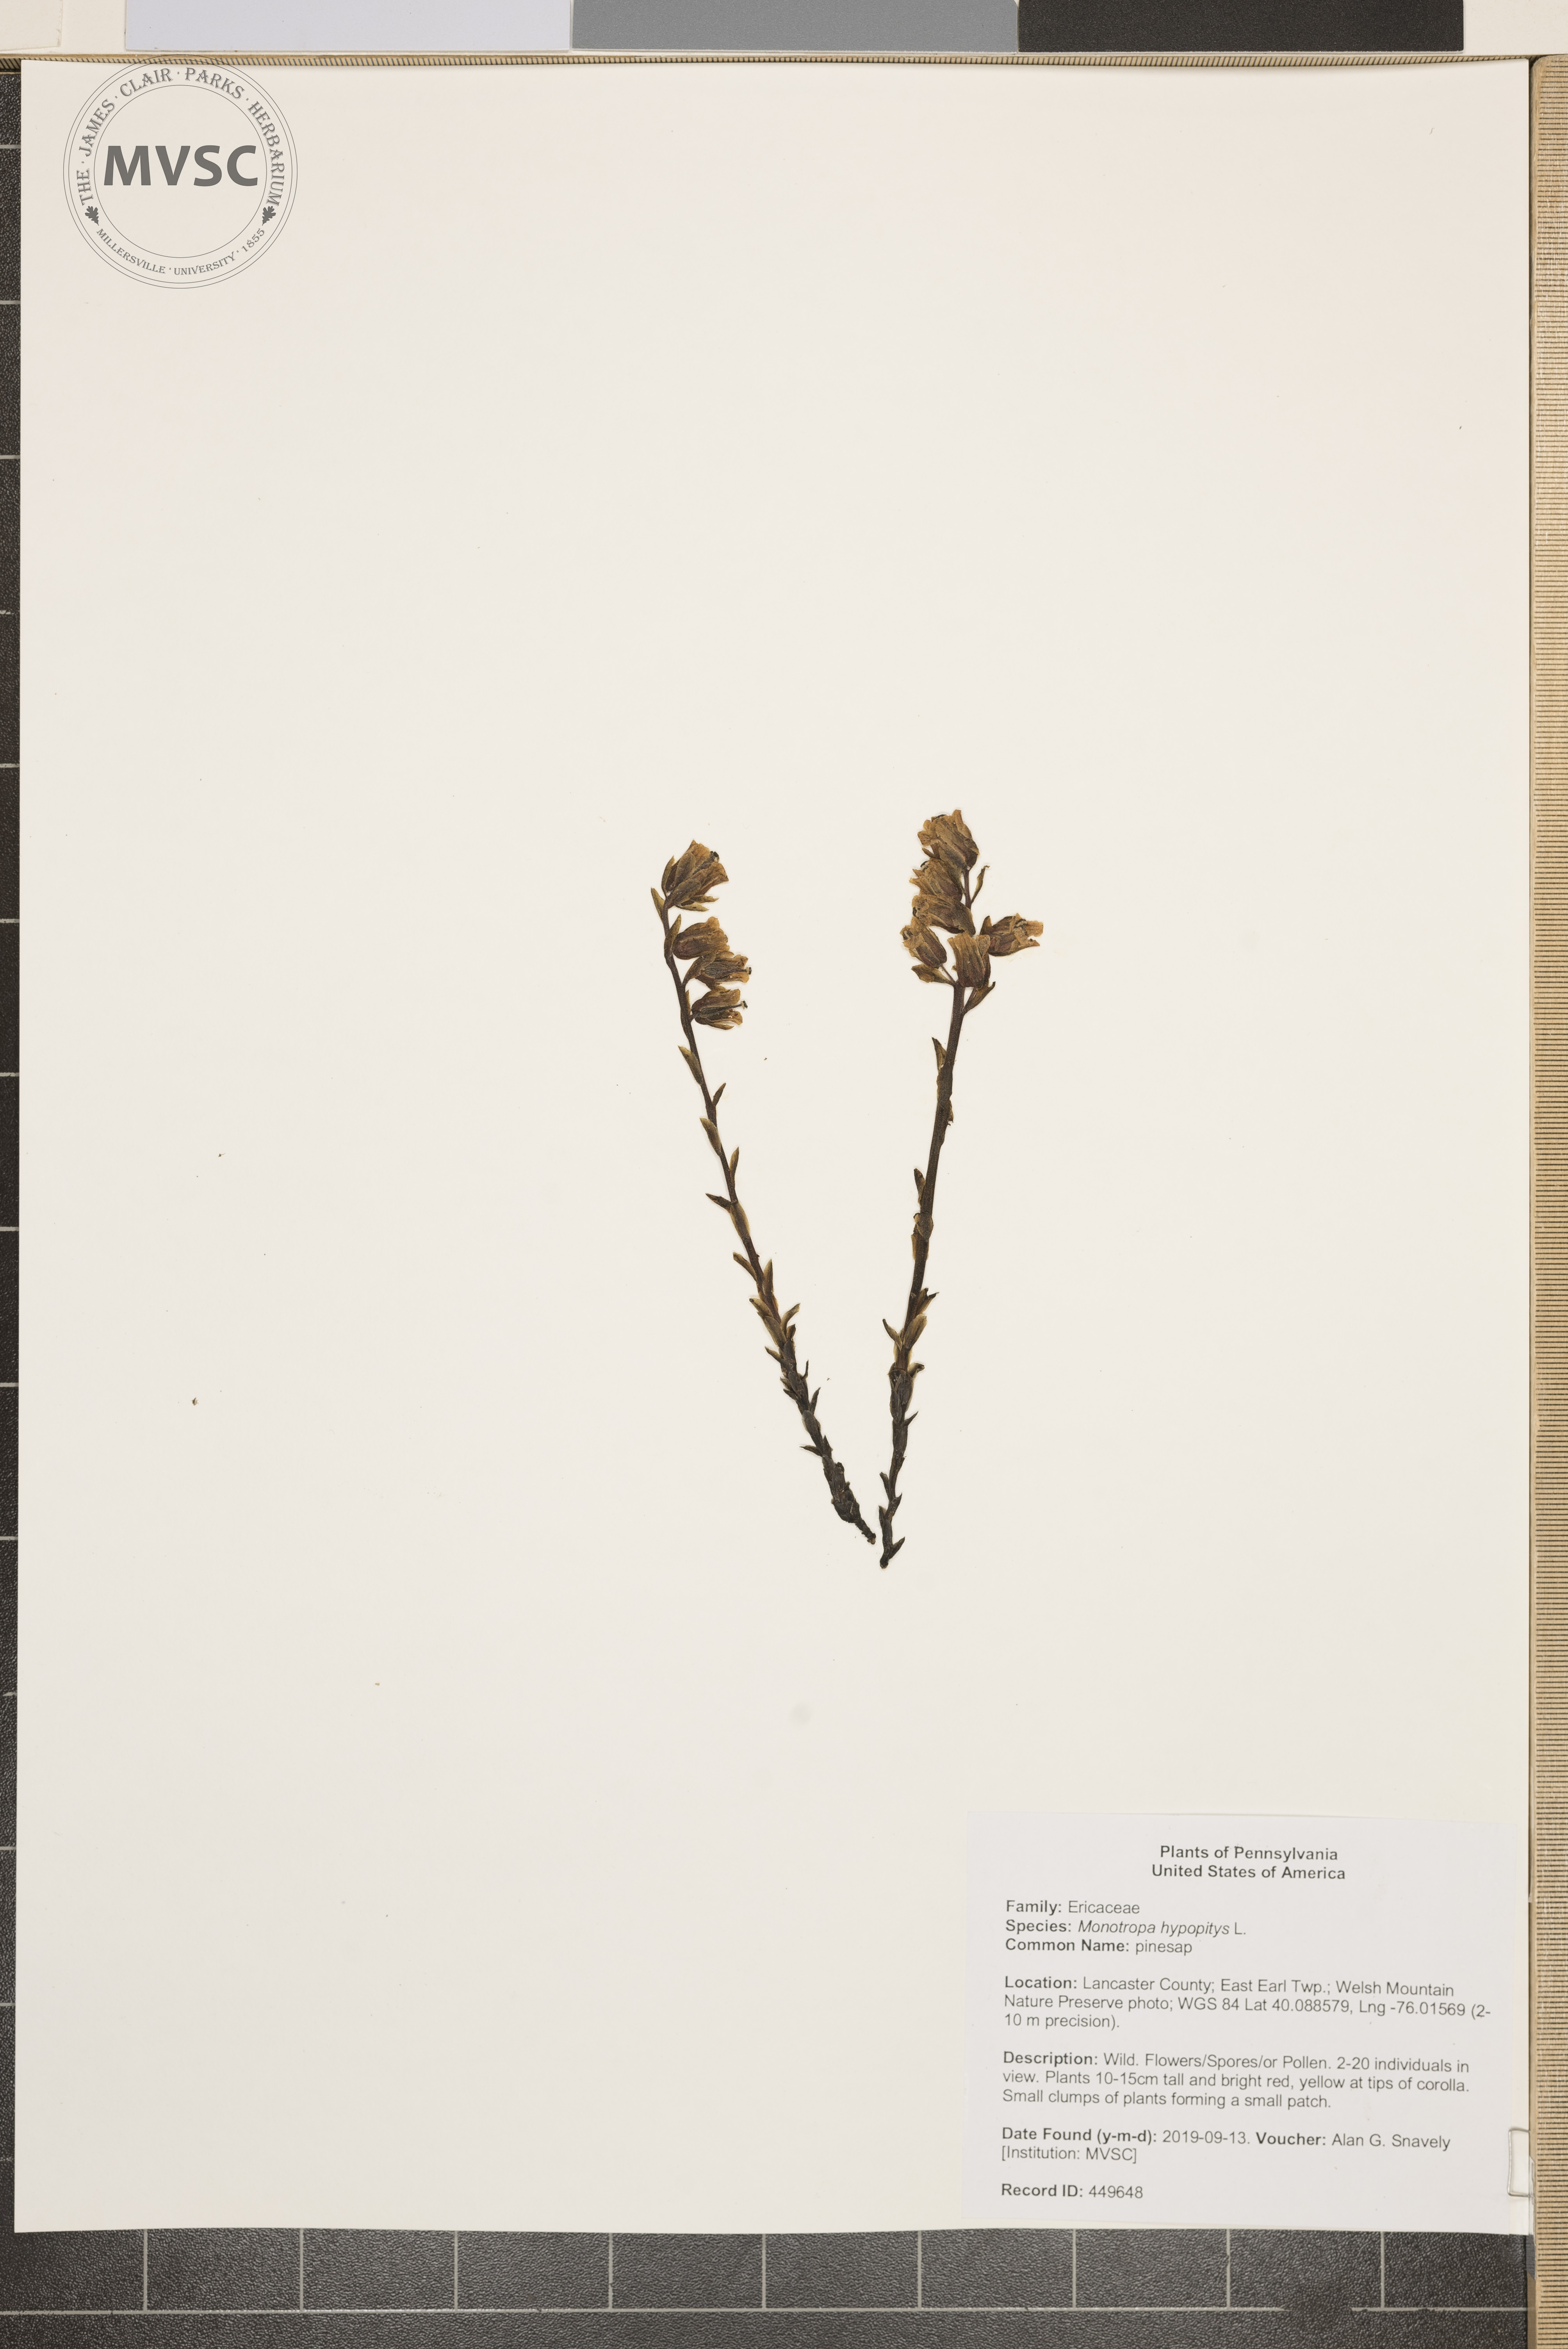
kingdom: Plantae
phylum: Tracheophyta
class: Magnoliopsida
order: Ericales
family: Ericaceae
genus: Hypopitys
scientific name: Hypopitys monotropa
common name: pinesap
